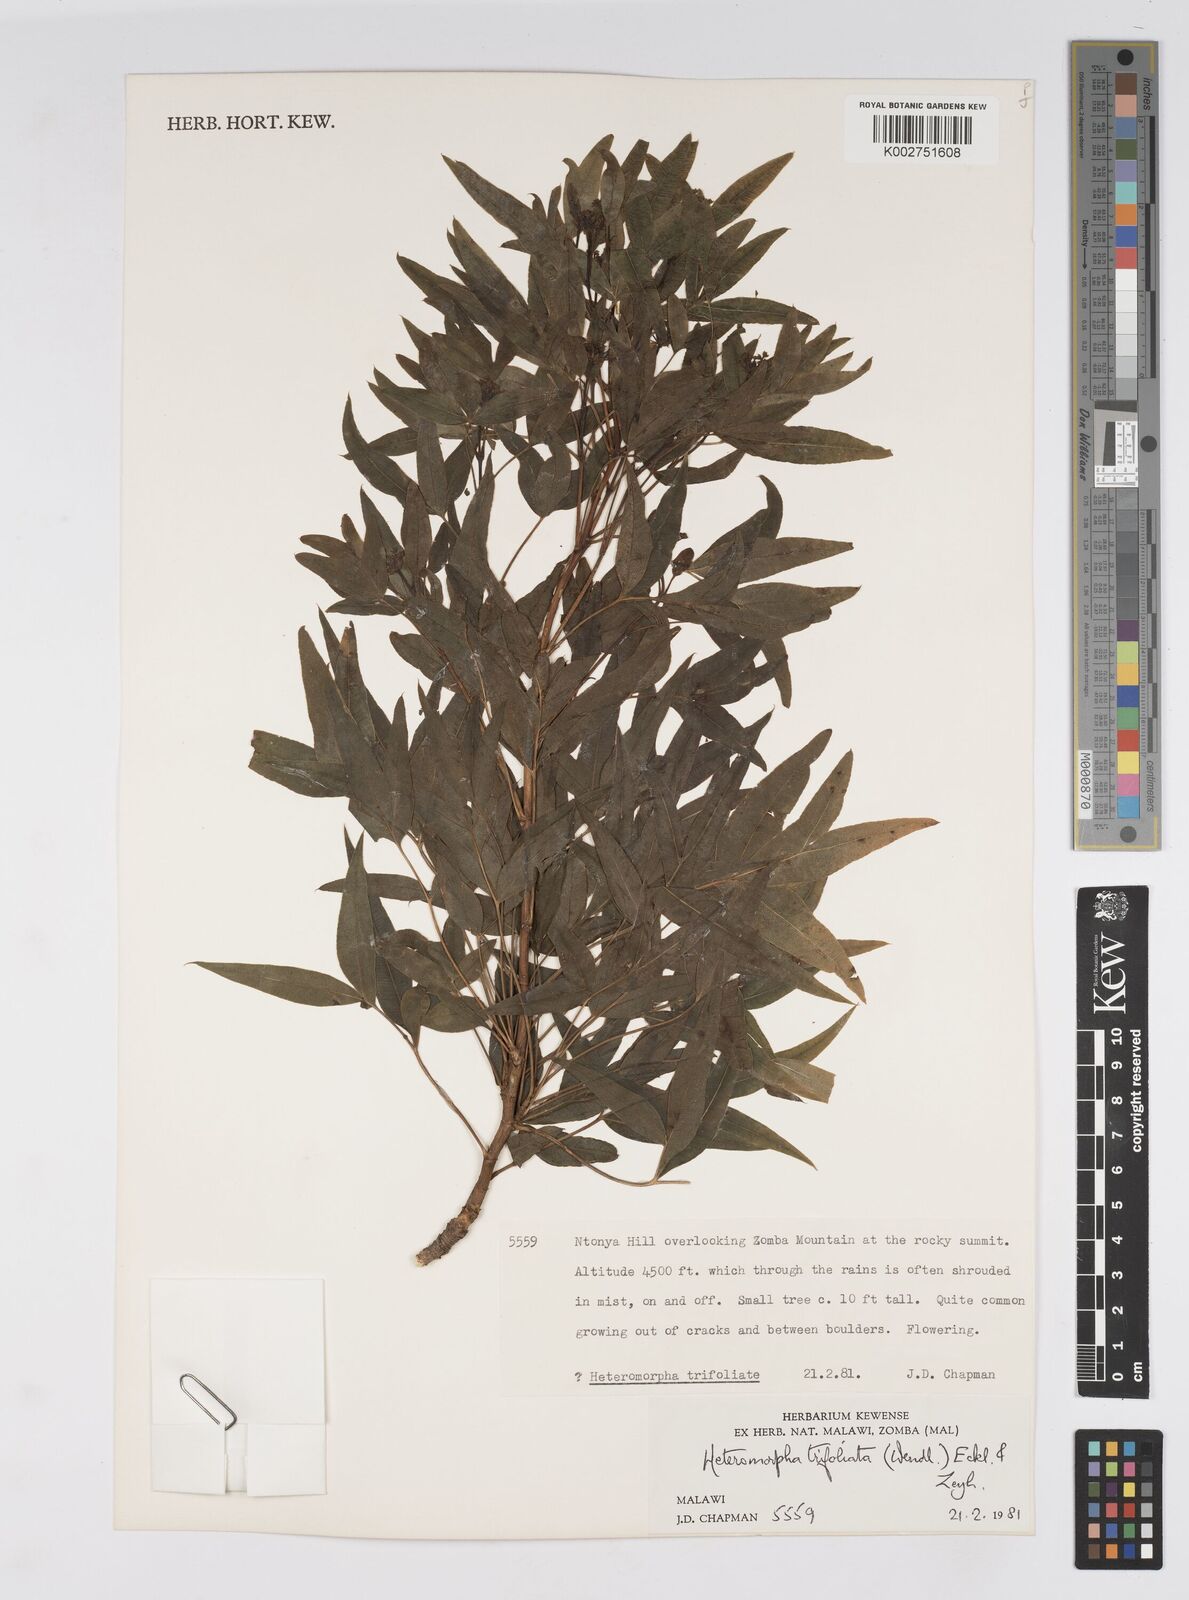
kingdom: Plantae
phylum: Tracheophyta
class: Magnoliopsida
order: Apiales
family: Apiaceae
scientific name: Apiaceae
